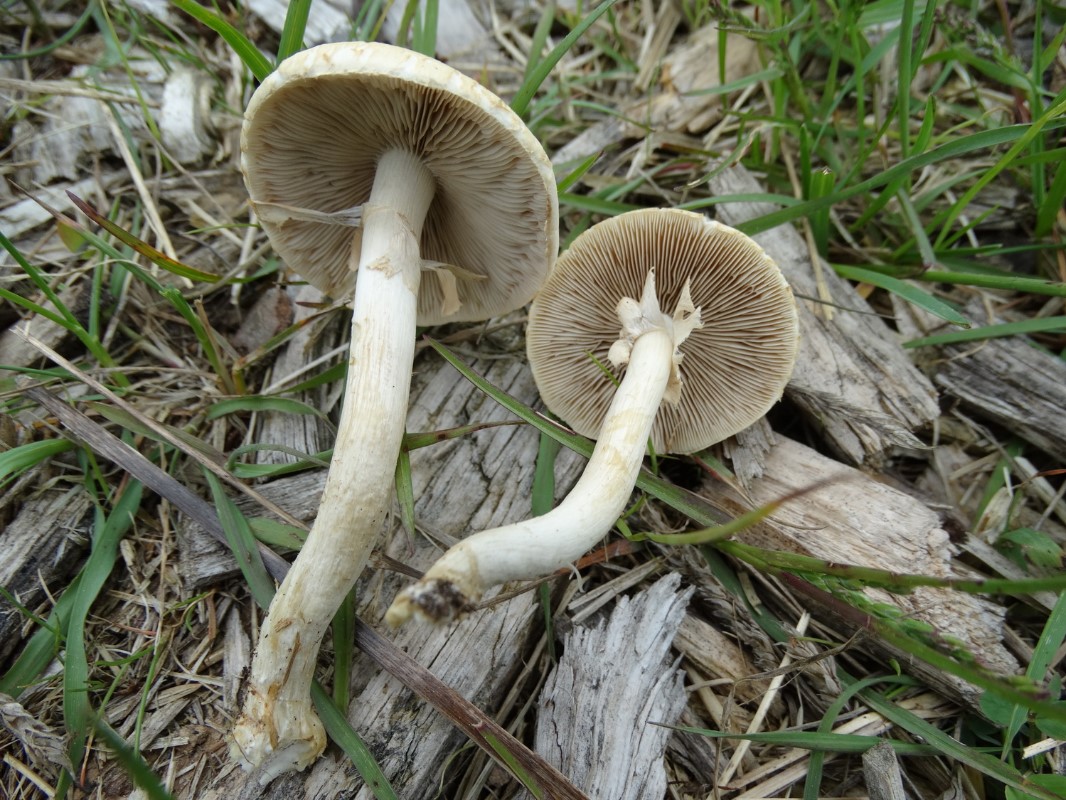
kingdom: Fungi
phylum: Basidiomycota
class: Agaricomycetes
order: Agaricales
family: Strophariaceae
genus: Agrocybe
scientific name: Agrocybe praecox
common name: tidlig agerhat
